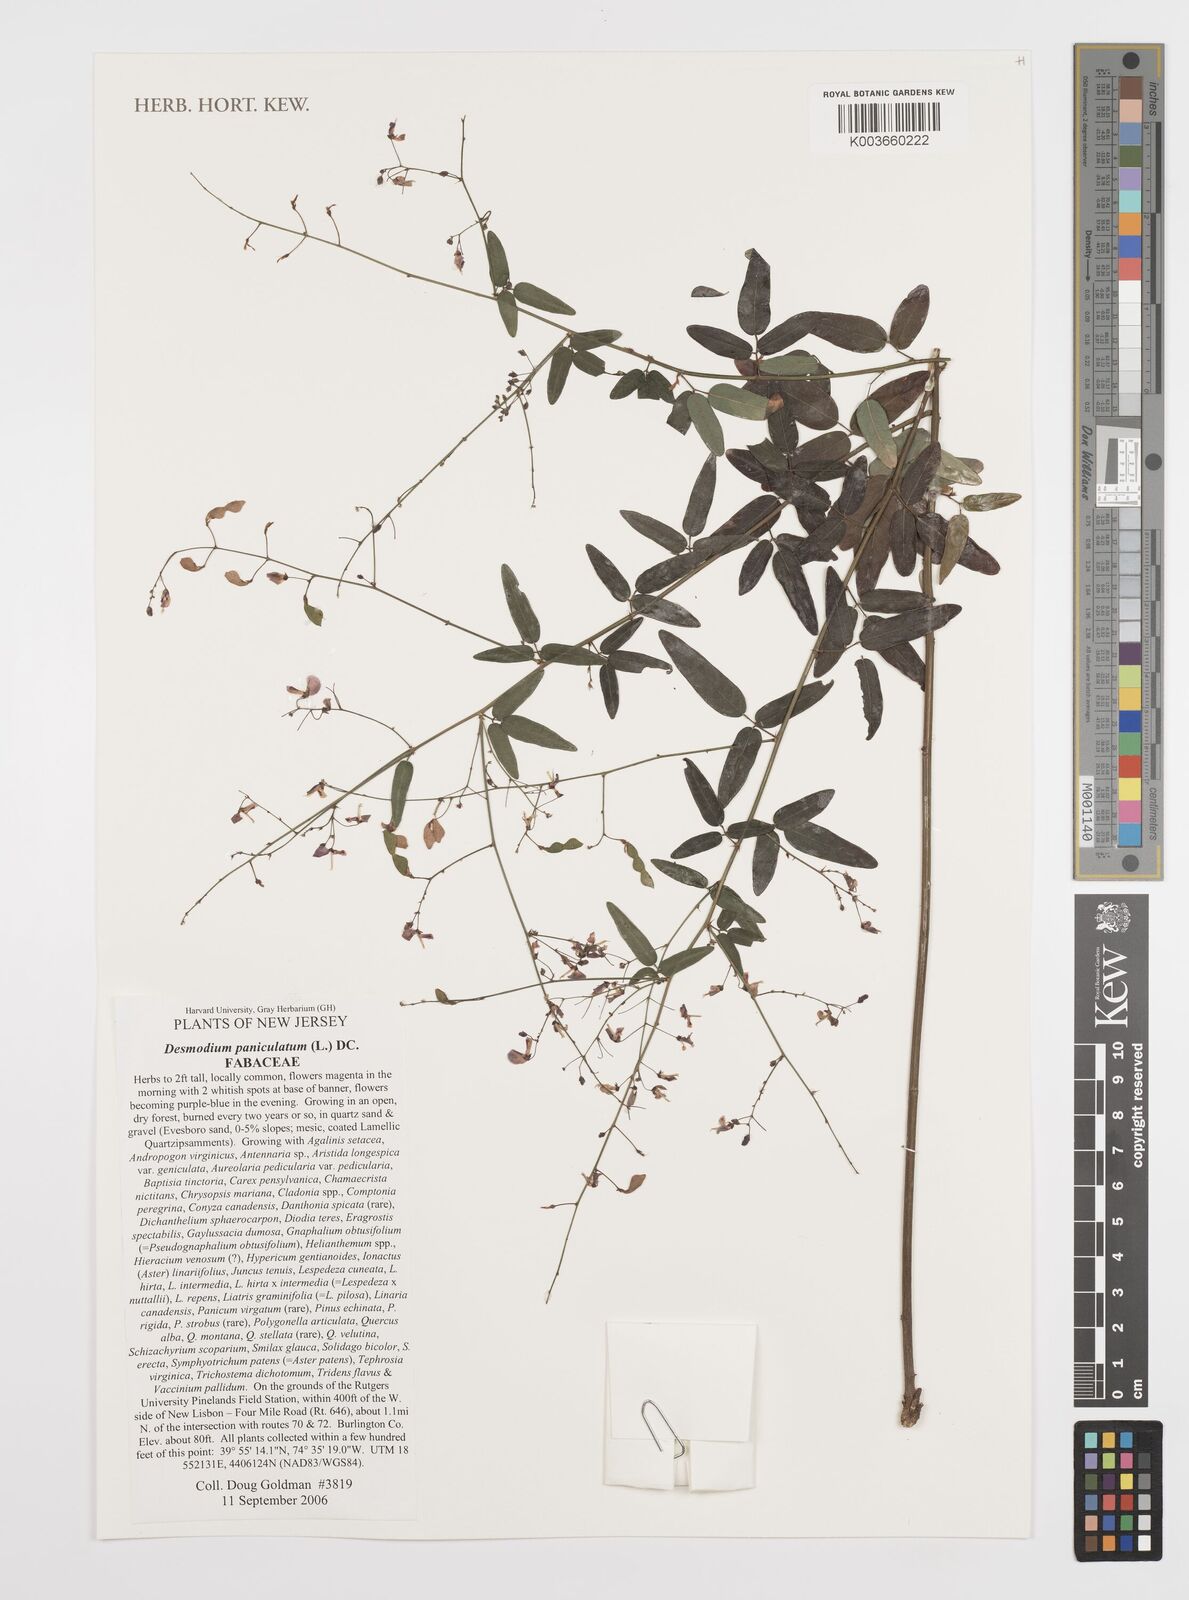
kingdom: Plantae
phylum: Tracheophyta
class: Magnoliopsida
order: Fabales
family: Fabaceae
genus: Desmodium
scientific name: Desmodium paniculatum
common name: Panicled tick-clover
